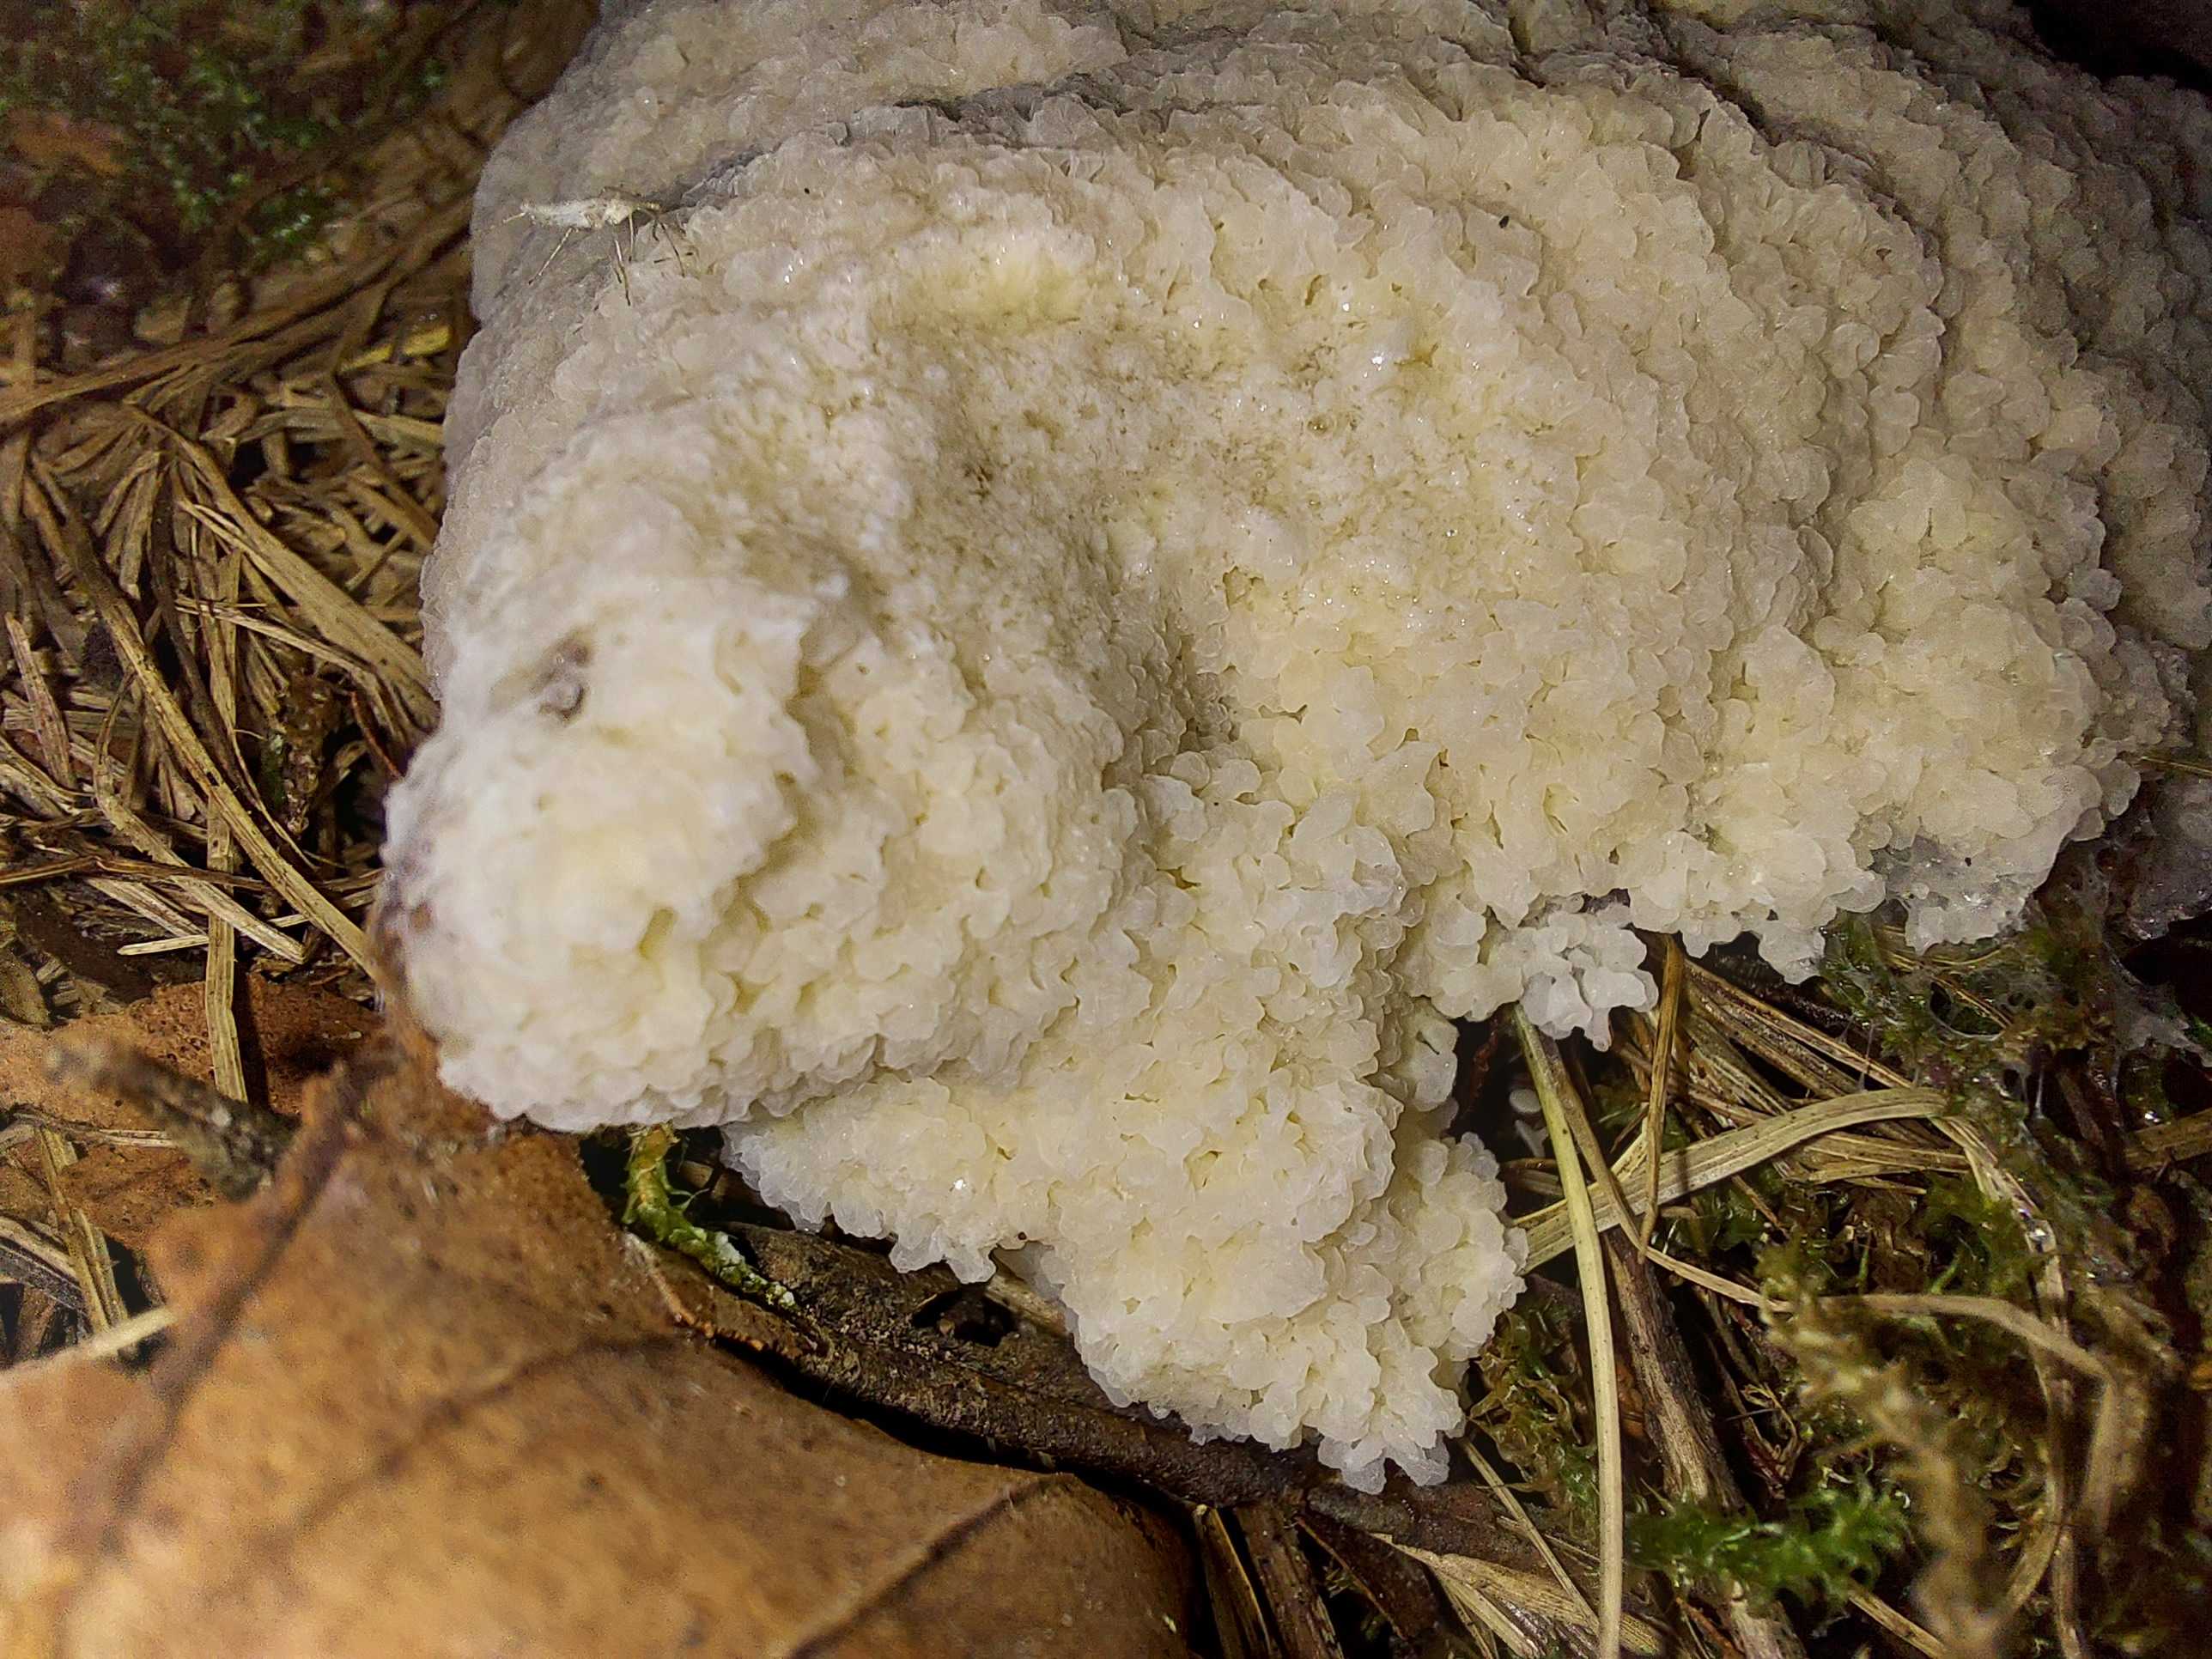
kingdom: Protozoa
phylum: Mycetozoa
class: Myxomycetes
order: Physarales
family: Physaraceae
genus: Didymium
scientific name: Didymium
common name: urteskum
